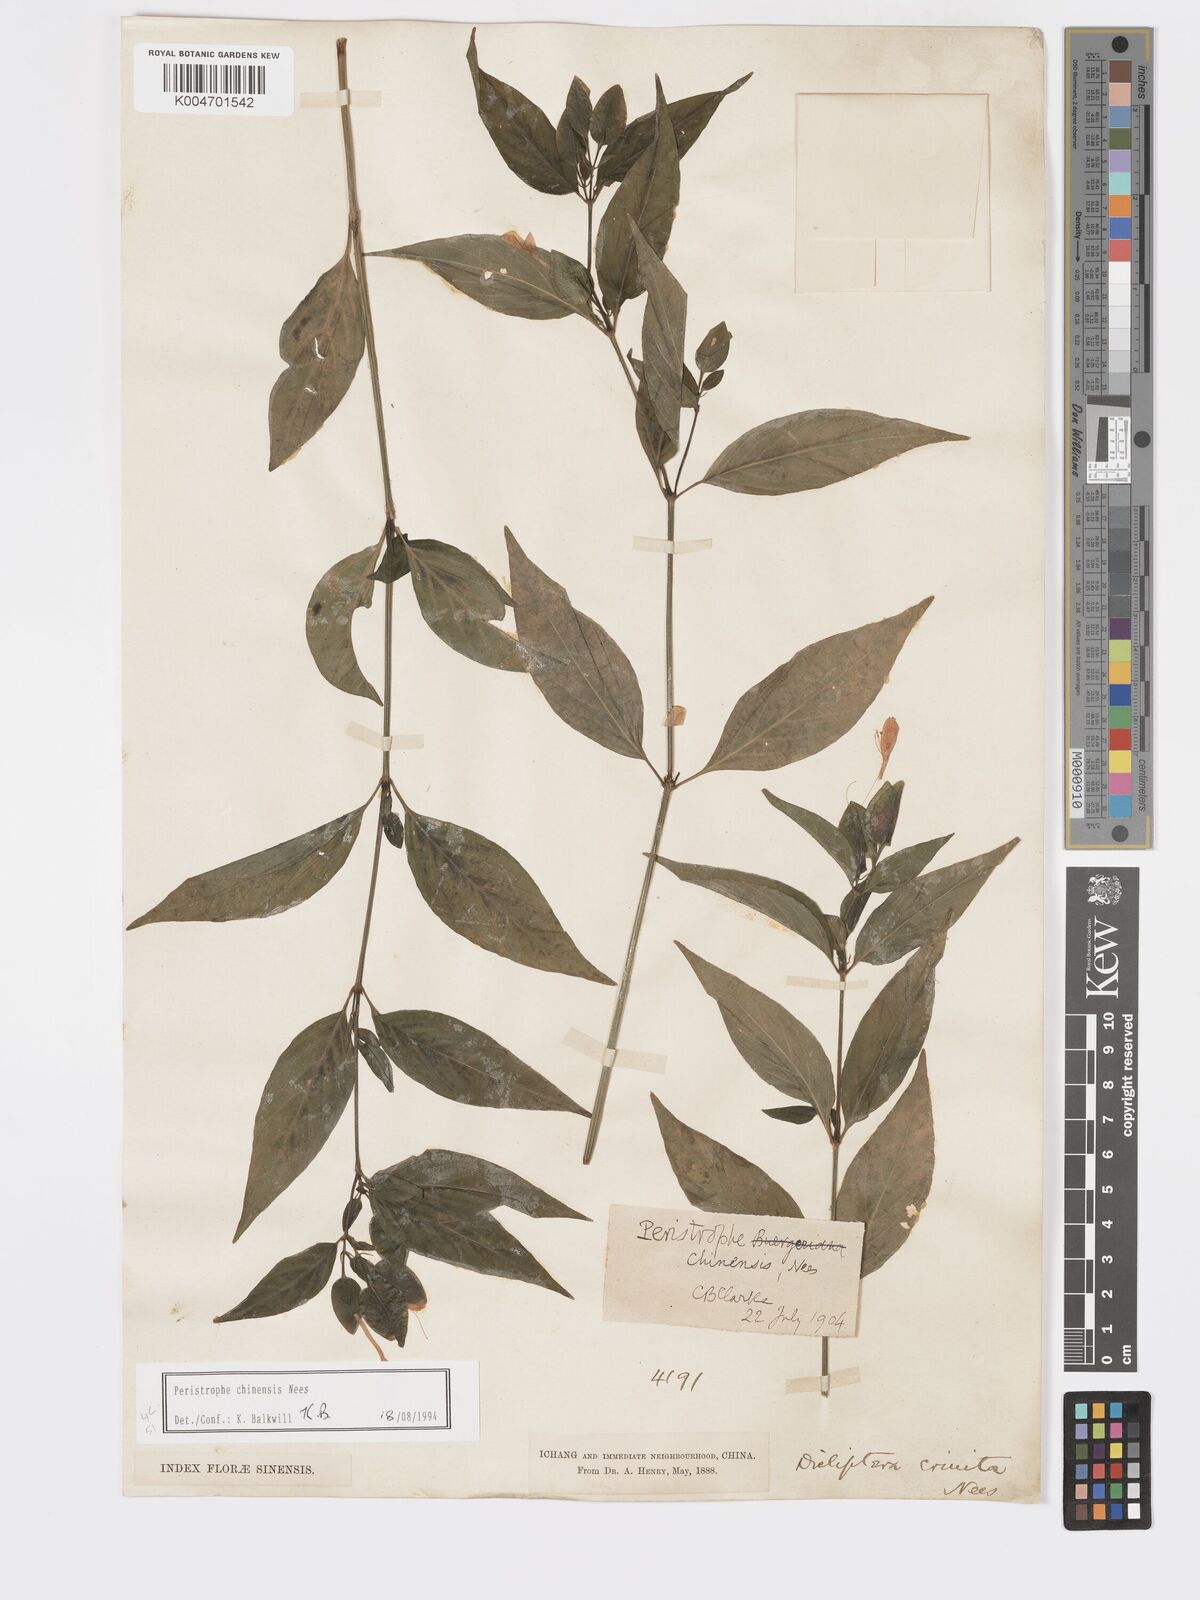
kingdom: Plantae
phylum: Tracheophyta
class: Magnoliopsida
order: Lamiales
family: Acanthaceae
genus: Dicliptera
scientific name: Dicliptera chinensis
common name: Chinese foldwing
